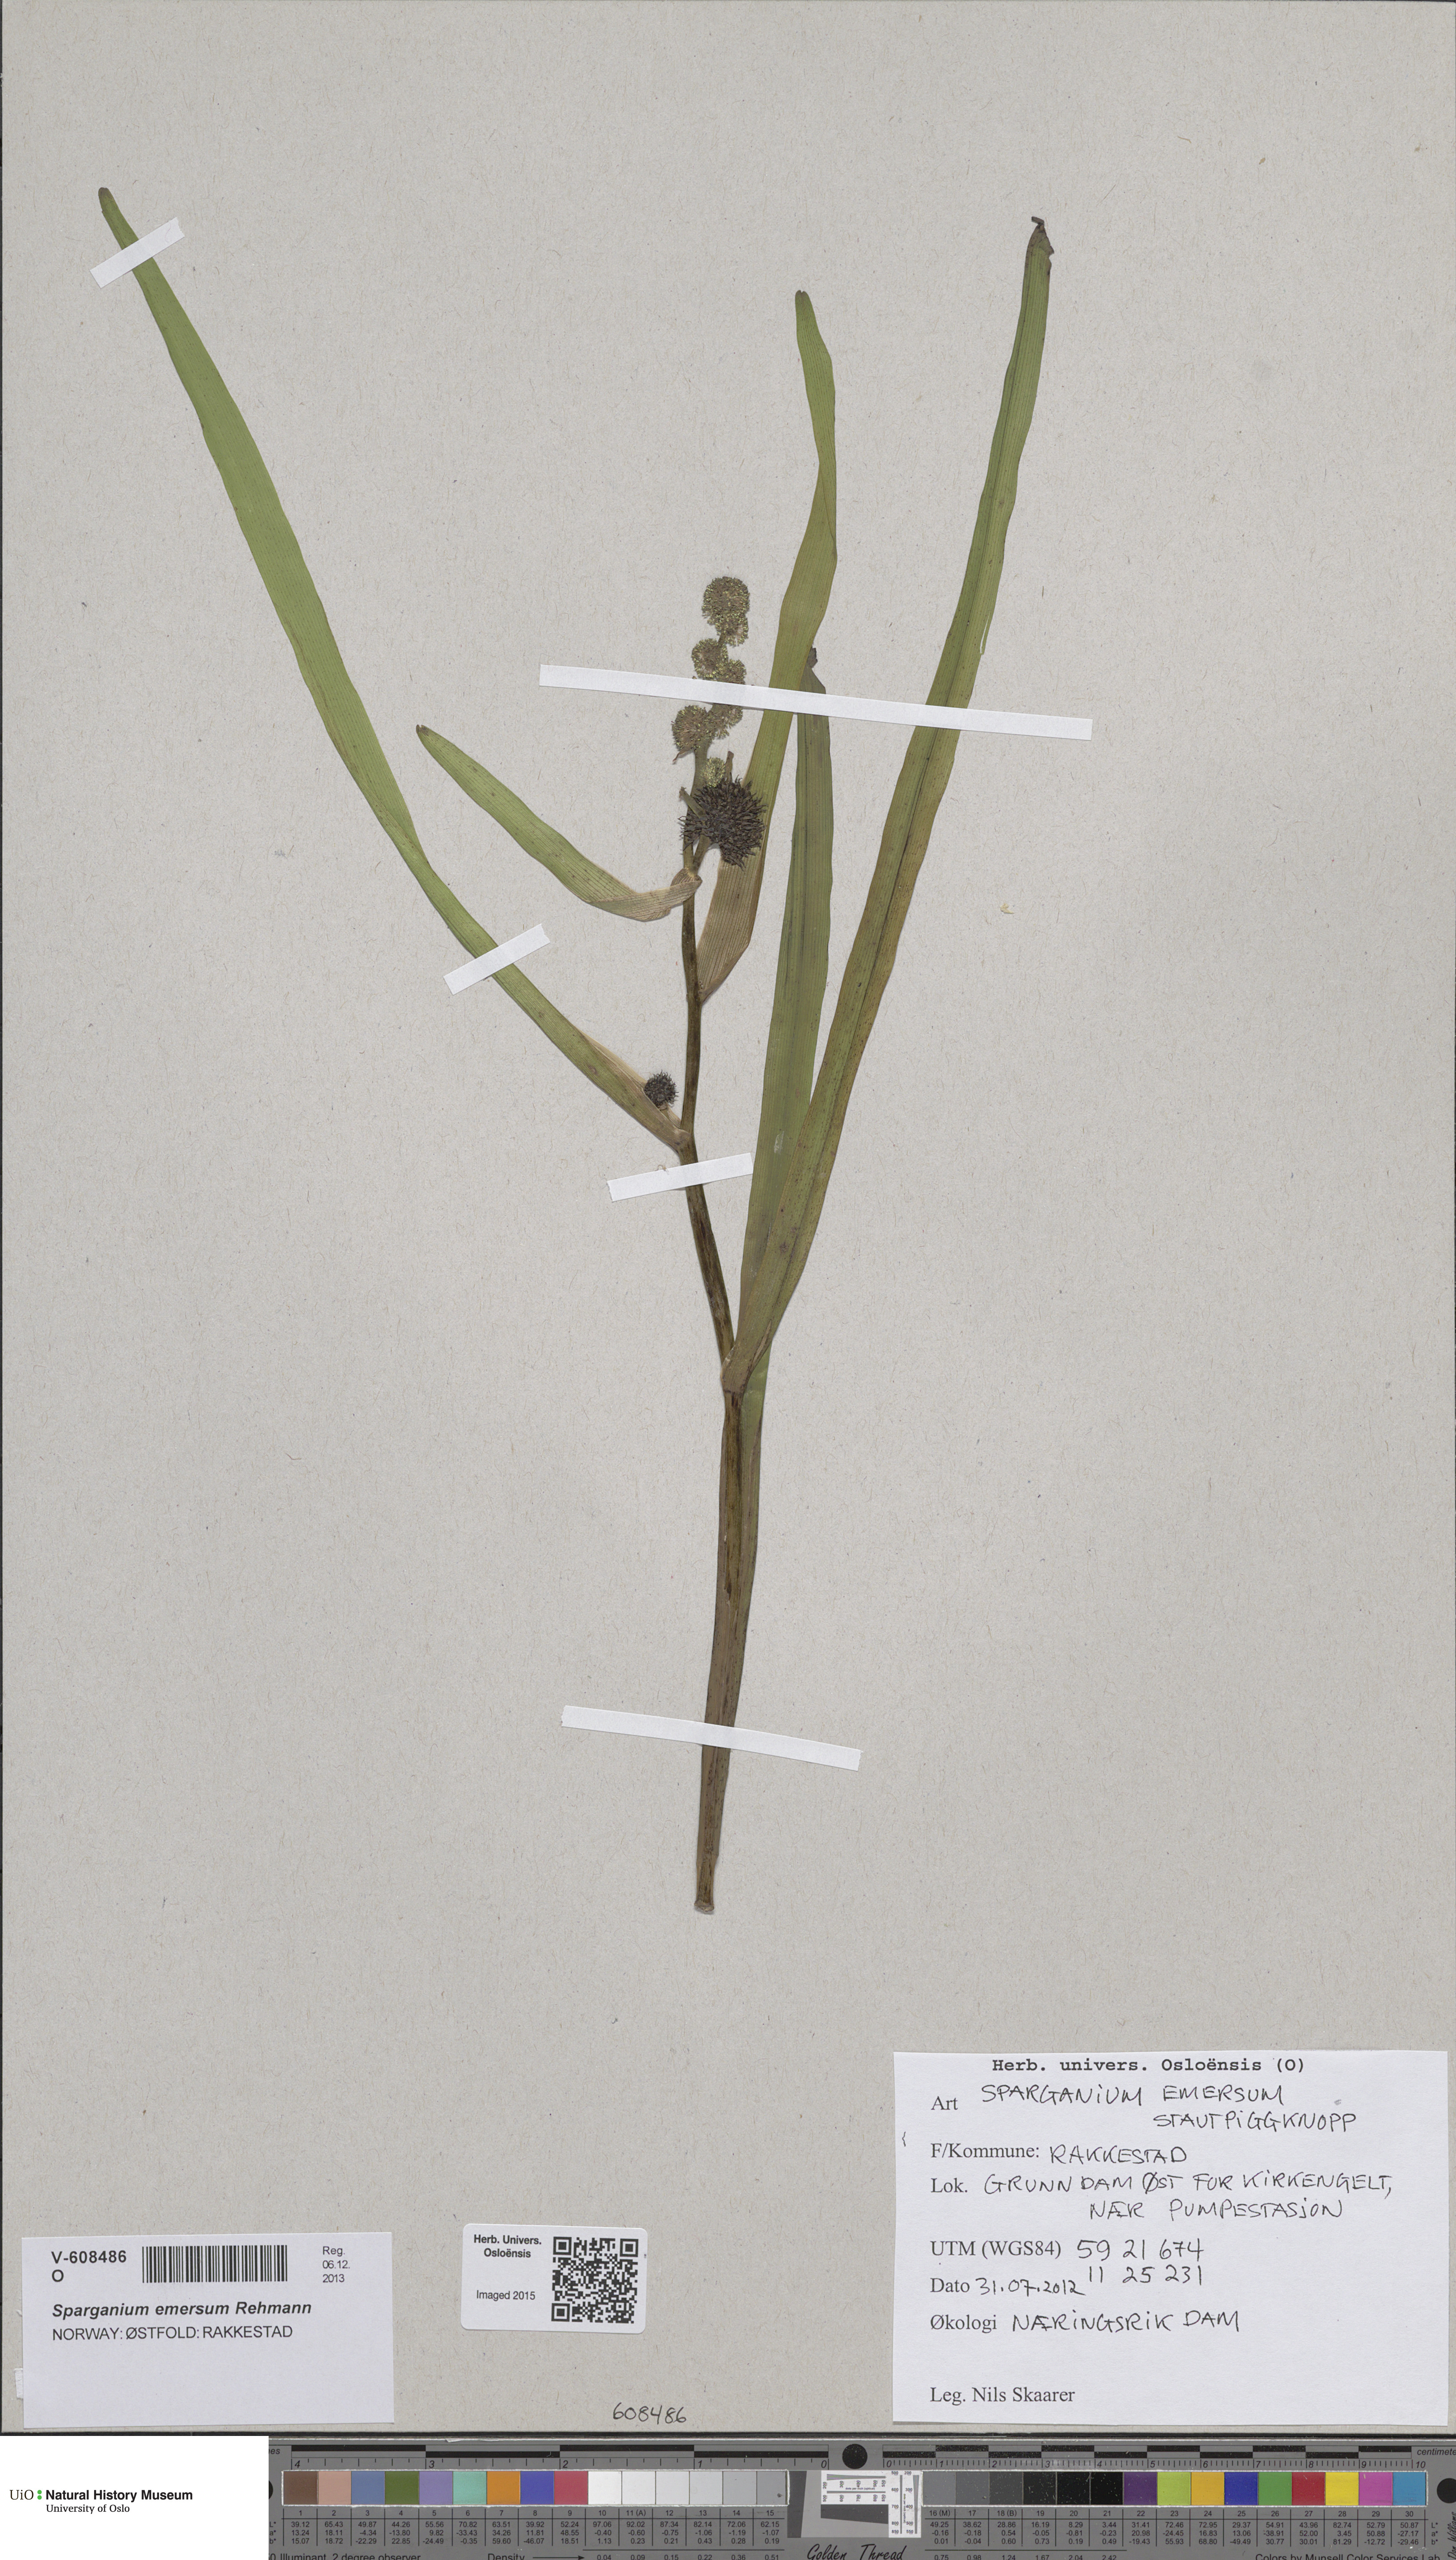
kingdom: Plantae
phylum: Tracheophyta
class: Liliopsida
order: Poales
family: Typhaceae
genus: Sparganium
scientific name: Sparganium emersum
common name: Unbranched bur-reed
